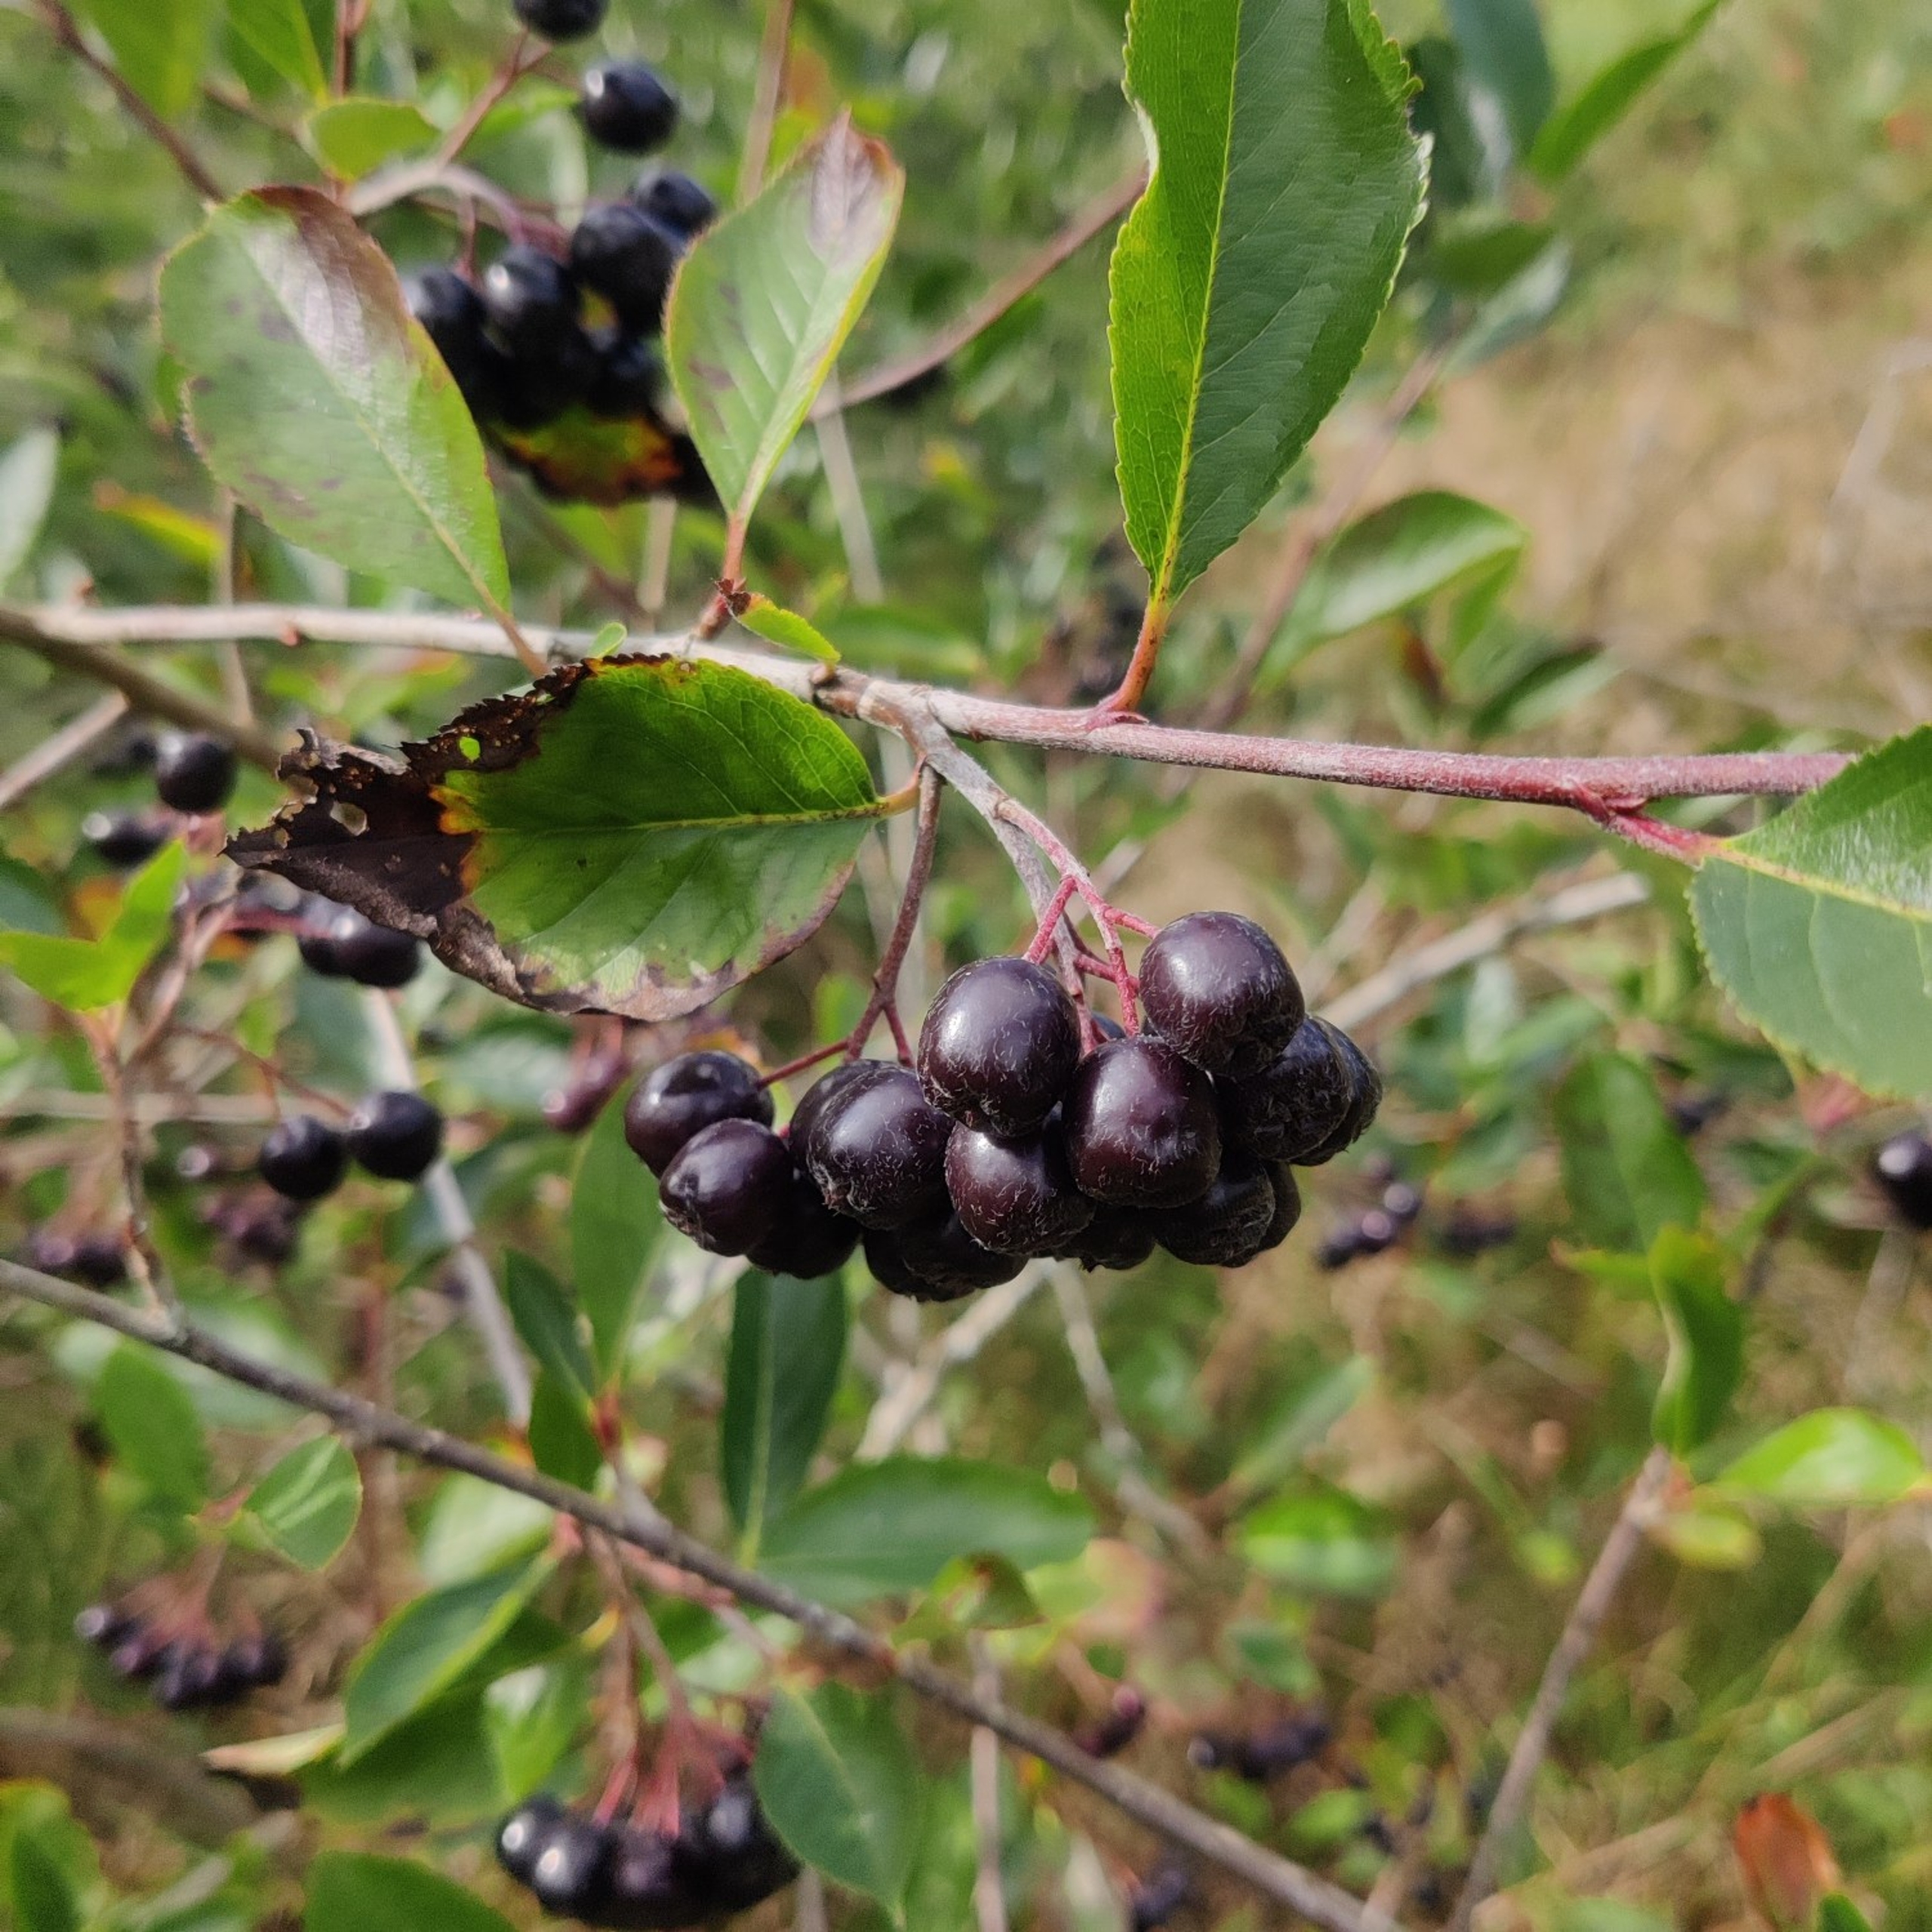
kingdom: Plantae
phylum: Tracheophyta
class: Magnoliopsida
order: Rosales
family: Rosaceae
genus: Aronia
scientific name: Aronia melanocarpa
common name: Sortfrugtet surbær
